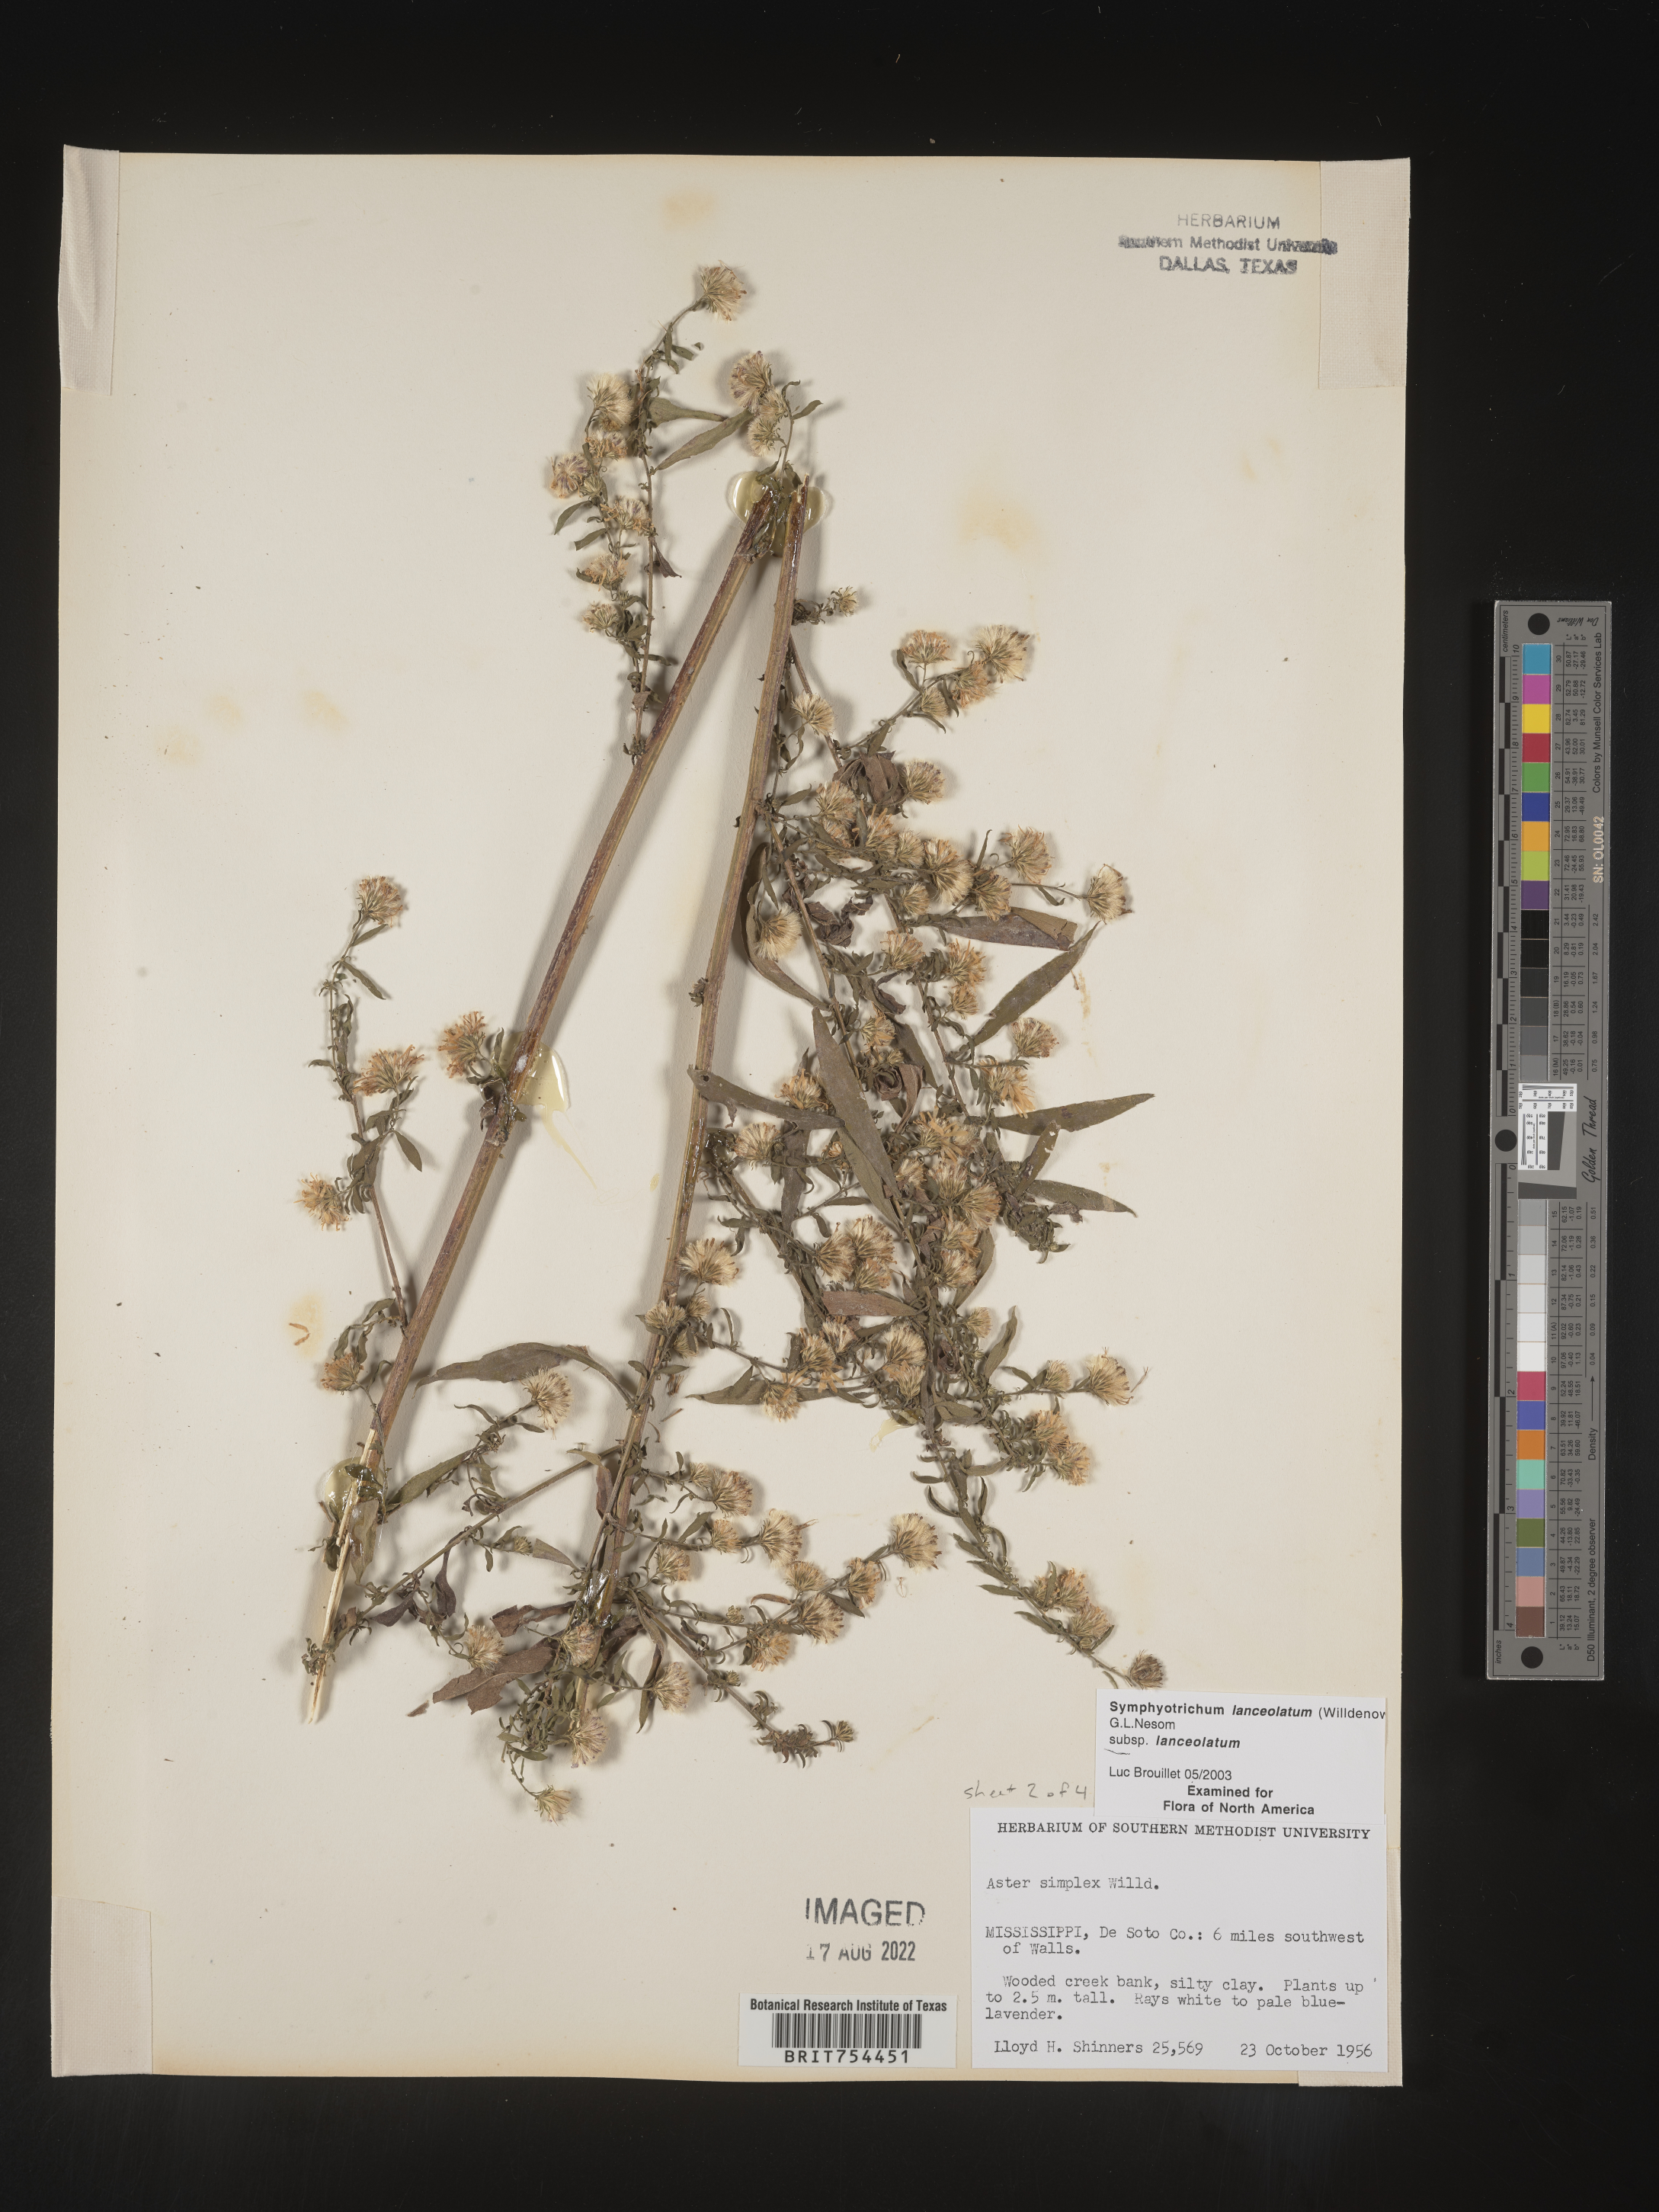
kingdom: Plantae
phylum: Tracheophyta
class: Magnoliopsida
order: Asterales
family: Asteraceae
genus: Symphyotrichum
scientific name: Symphyotrichum lanceolatum
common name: Panicled aster
